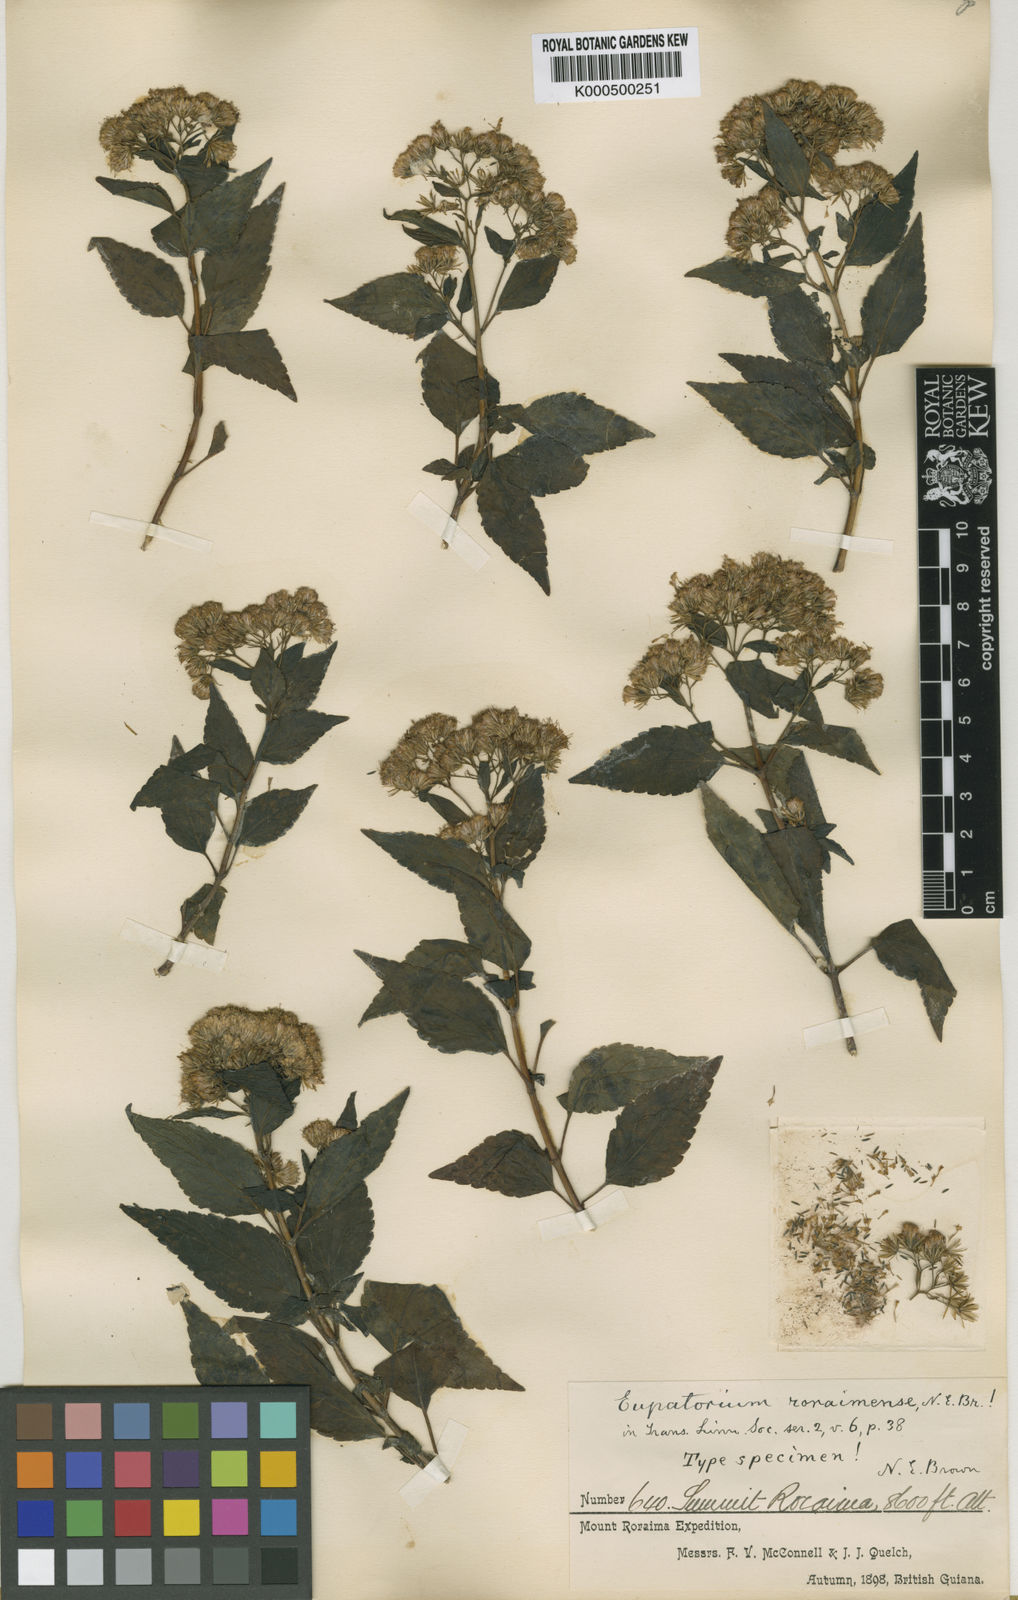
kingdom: Plantae
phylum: Tracheophyta
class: Magnoliopsida
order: Asterales
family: Asteraceae
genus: Ageratina
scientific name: Ageratina roraimensis
